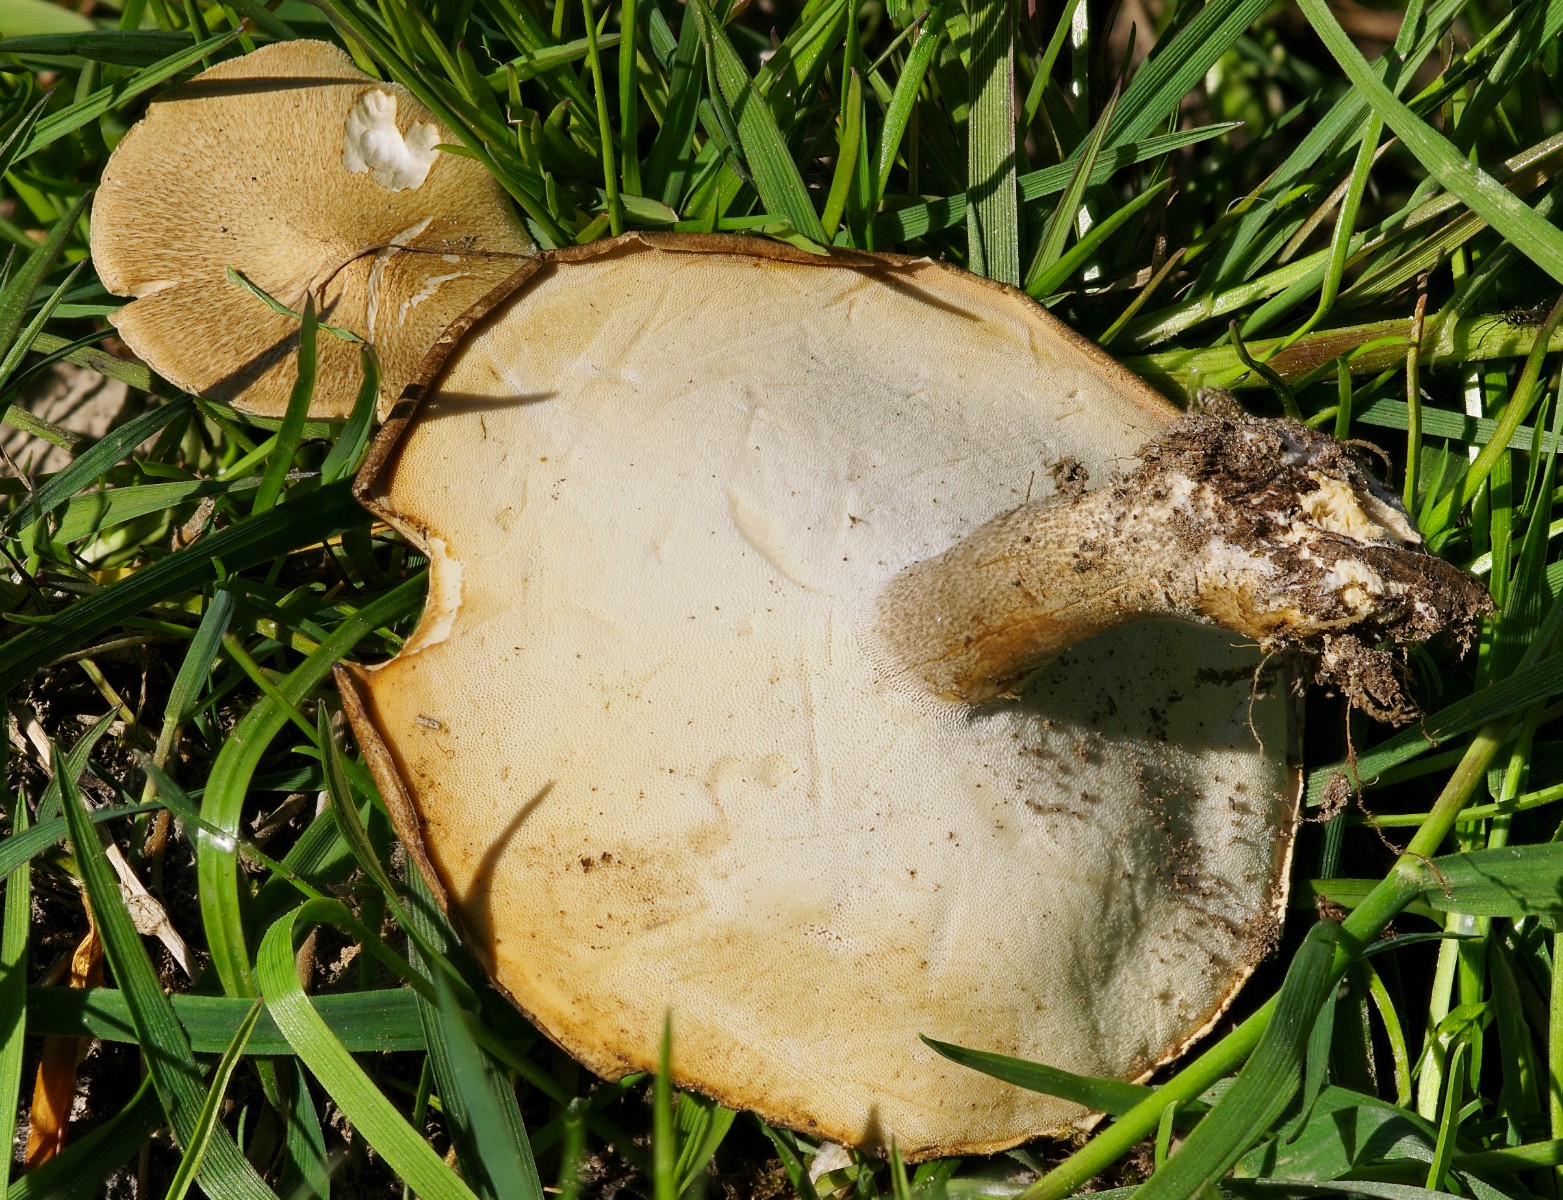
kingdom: Fungi
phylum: Basidiomycota
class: Agaricomycetes
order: Polyporales
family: Polyporaceae
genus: Lentinus
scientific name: Lentinus substrictus
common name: forårs-stilkporesvamp
